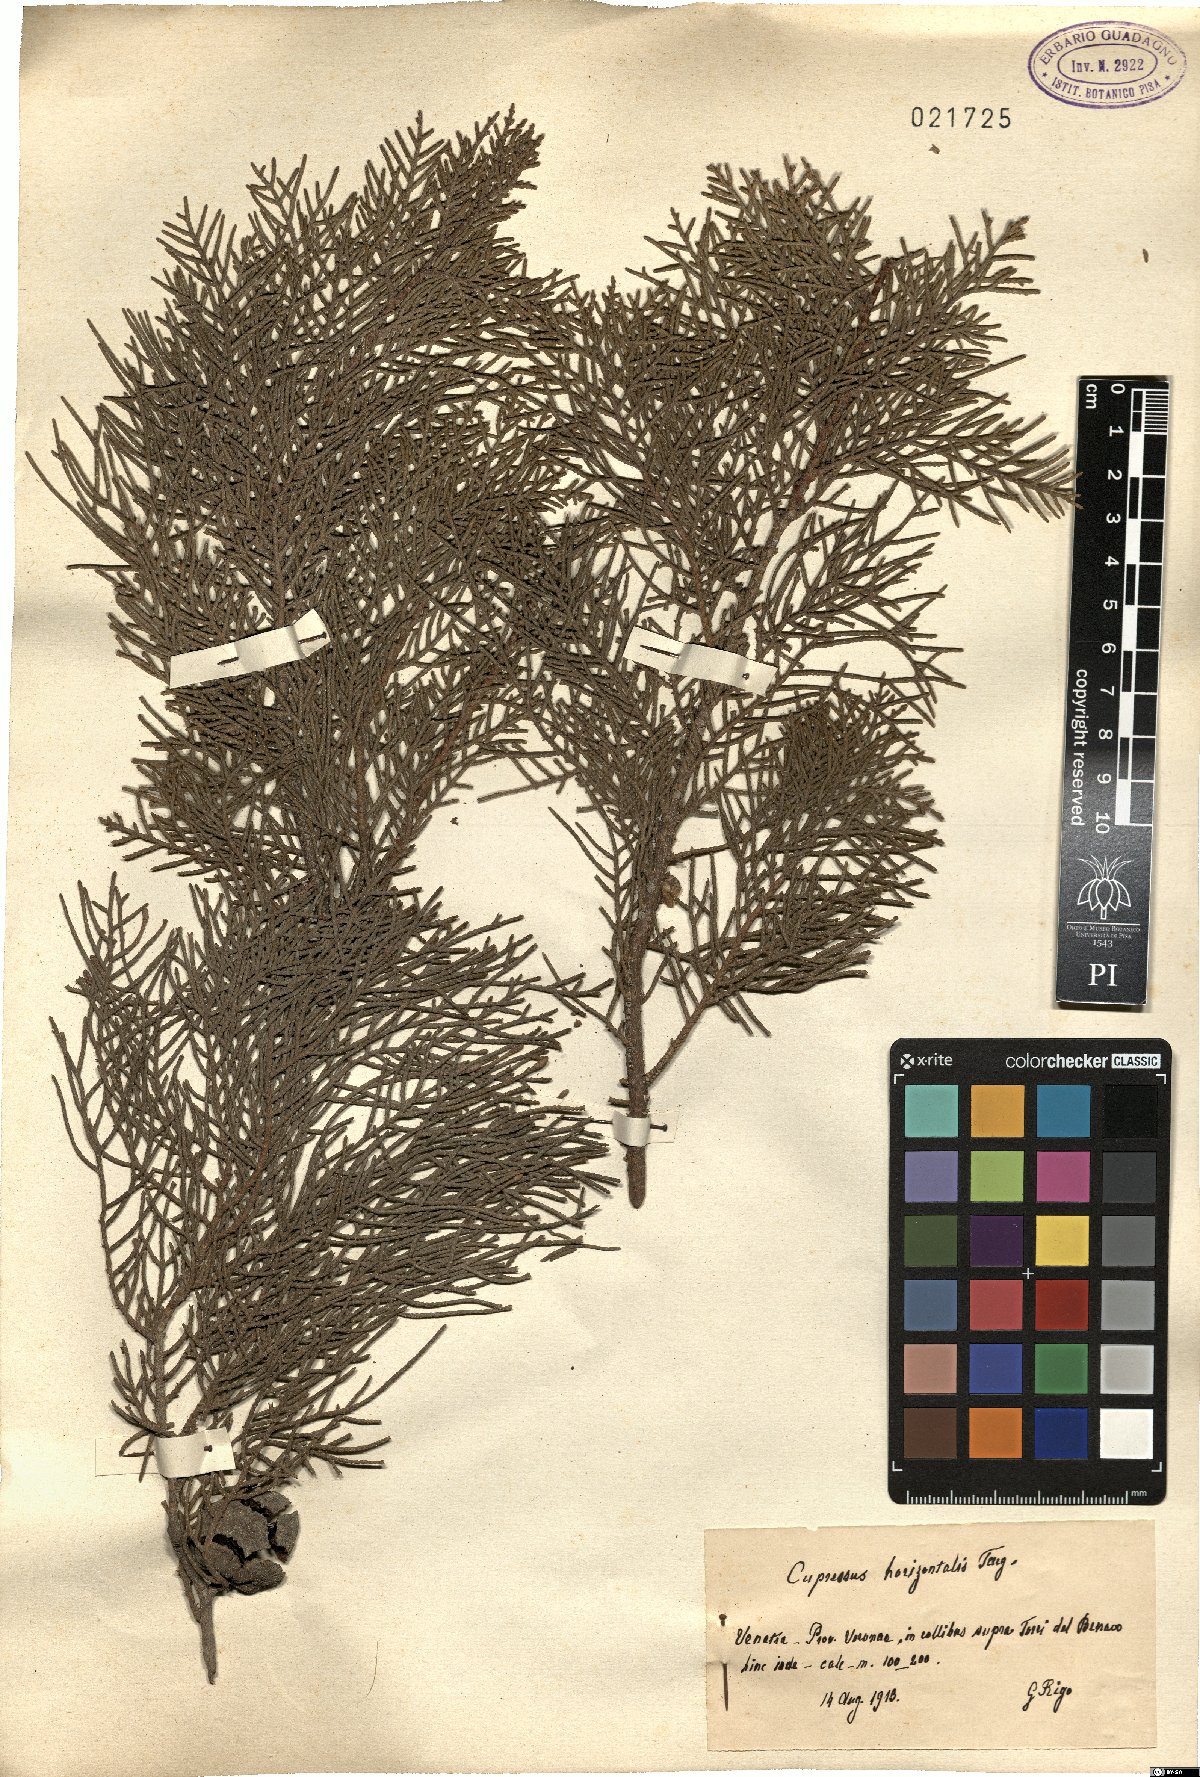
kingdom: Plantae
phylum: Tracheophyta
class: Pinopsida
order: Pinales
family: Cupressaceae
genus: Cupressus
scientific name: Cupressus sempervirens
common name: Italian cypress
